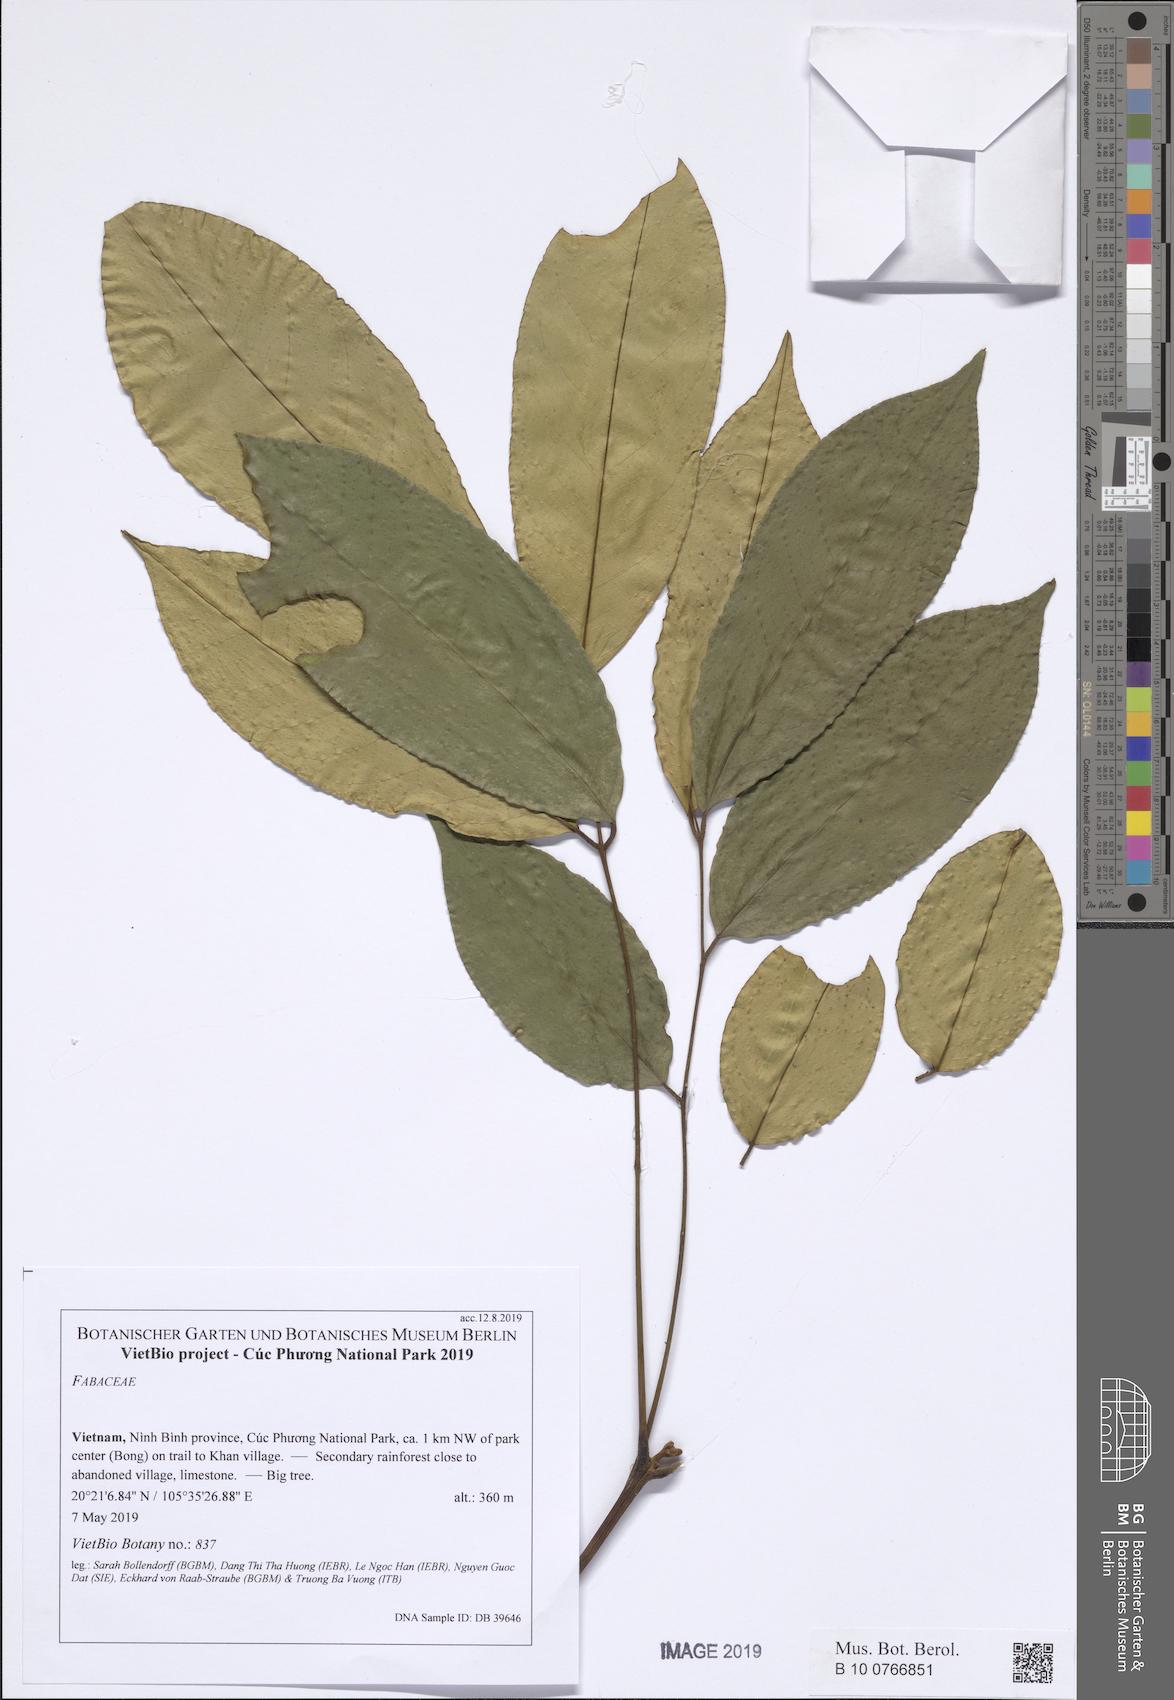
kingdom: Plantae
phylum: Tracheophyta
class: Magnoliopsida
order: Fabales
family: Fabaceae
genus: Millettia
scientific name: Millettia
